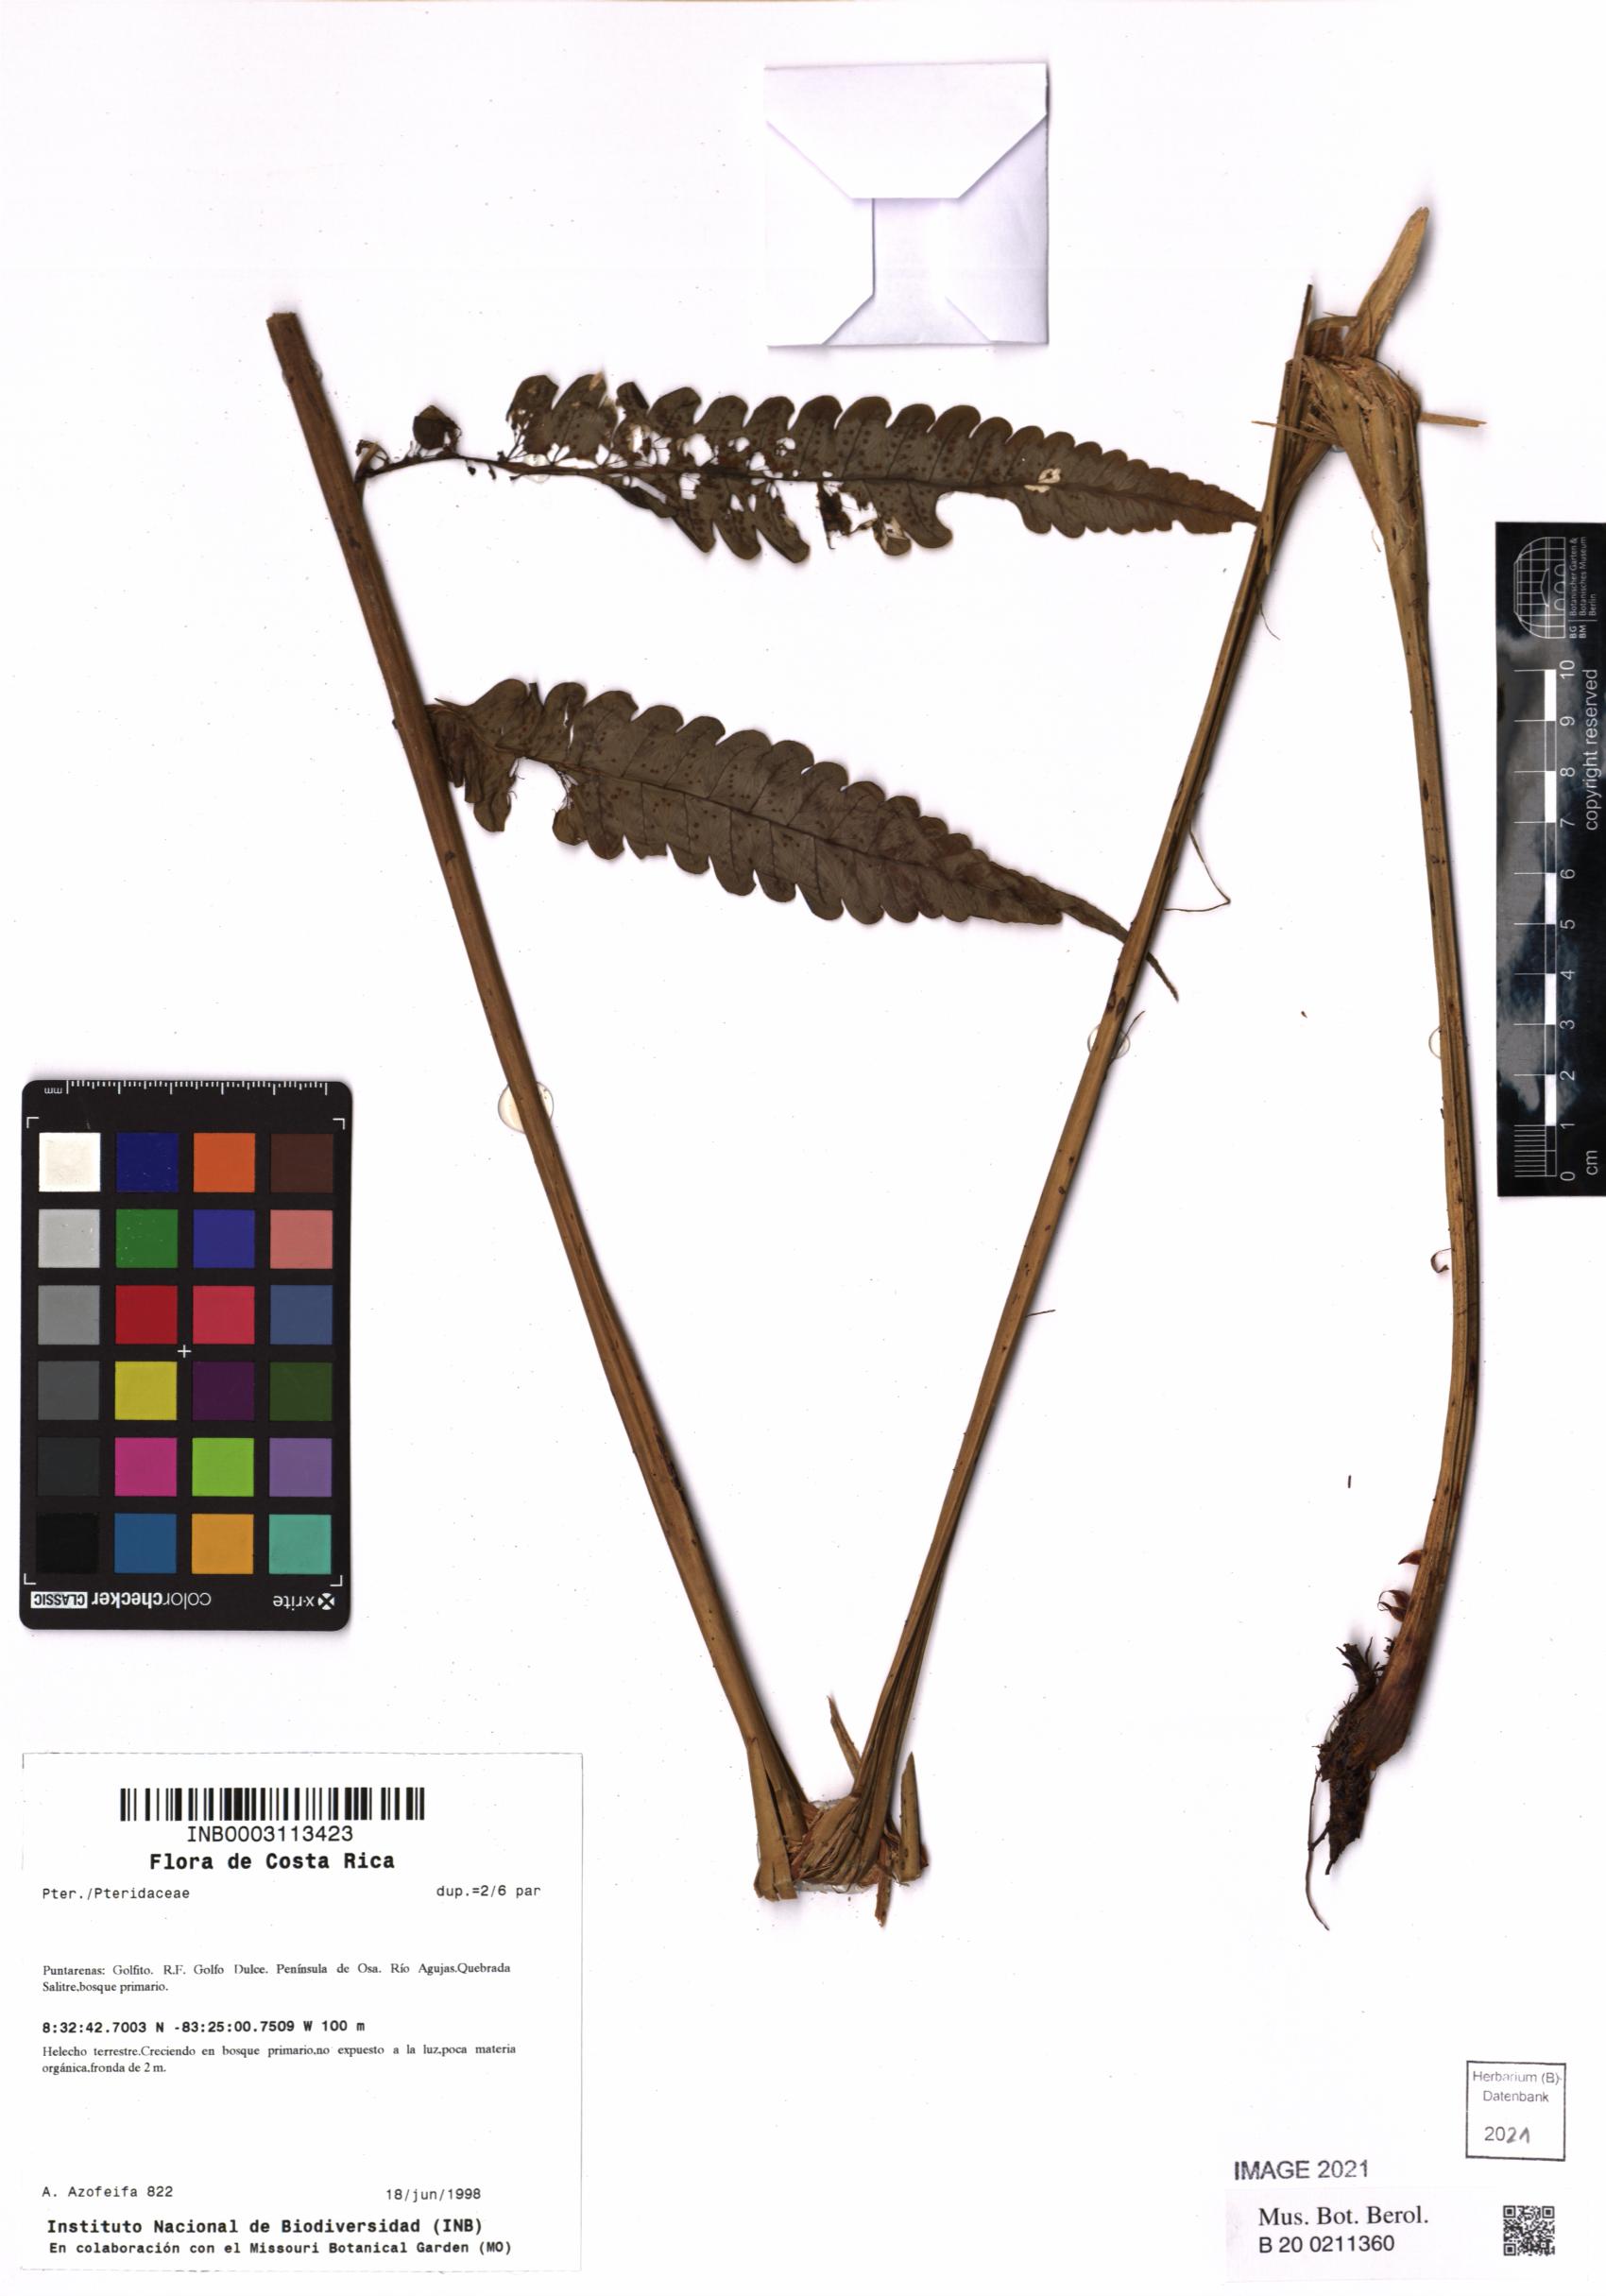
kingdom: Plantae
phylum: Tracheophyta
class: Polypodiopsida
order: Polypodiales
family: Pteridaceae
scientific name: Pteridaceae
